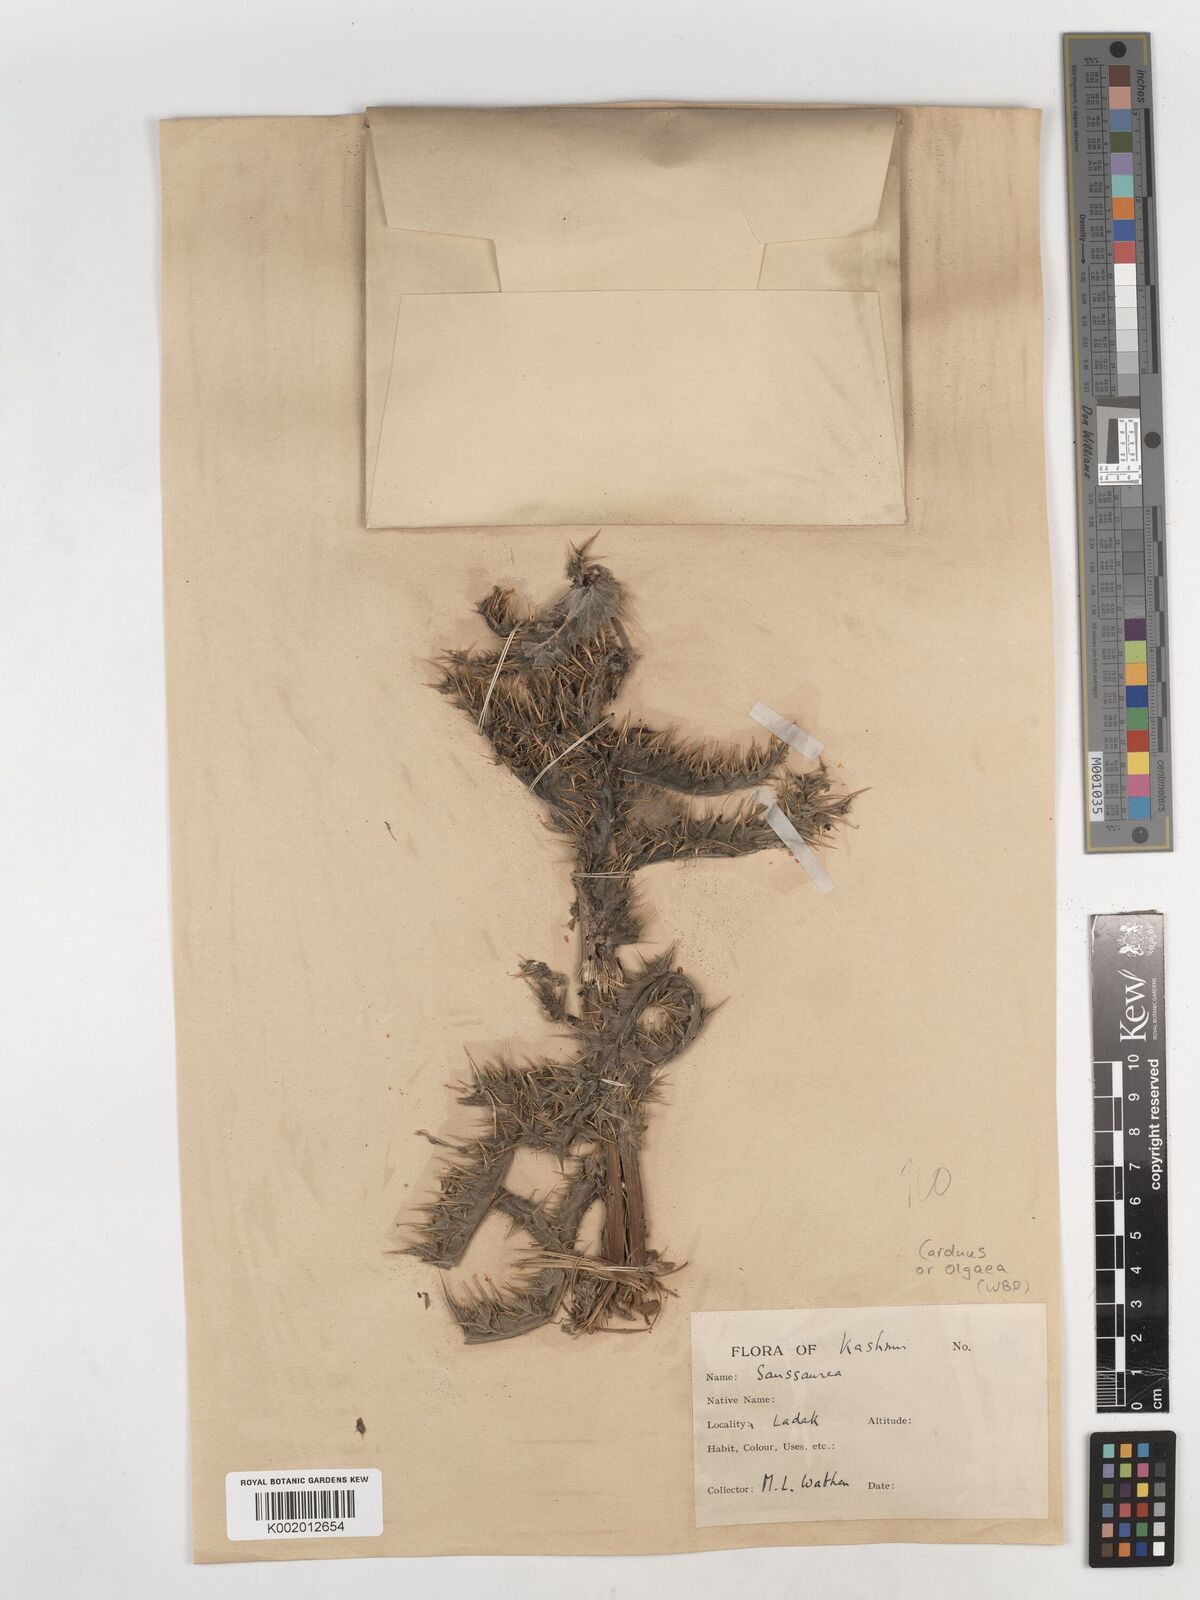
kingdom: Plantae
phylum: Tracheophyta
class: Magnoliopsida
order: Asterales
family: Asteraceae
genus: Cirsium
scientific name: Cirsium
